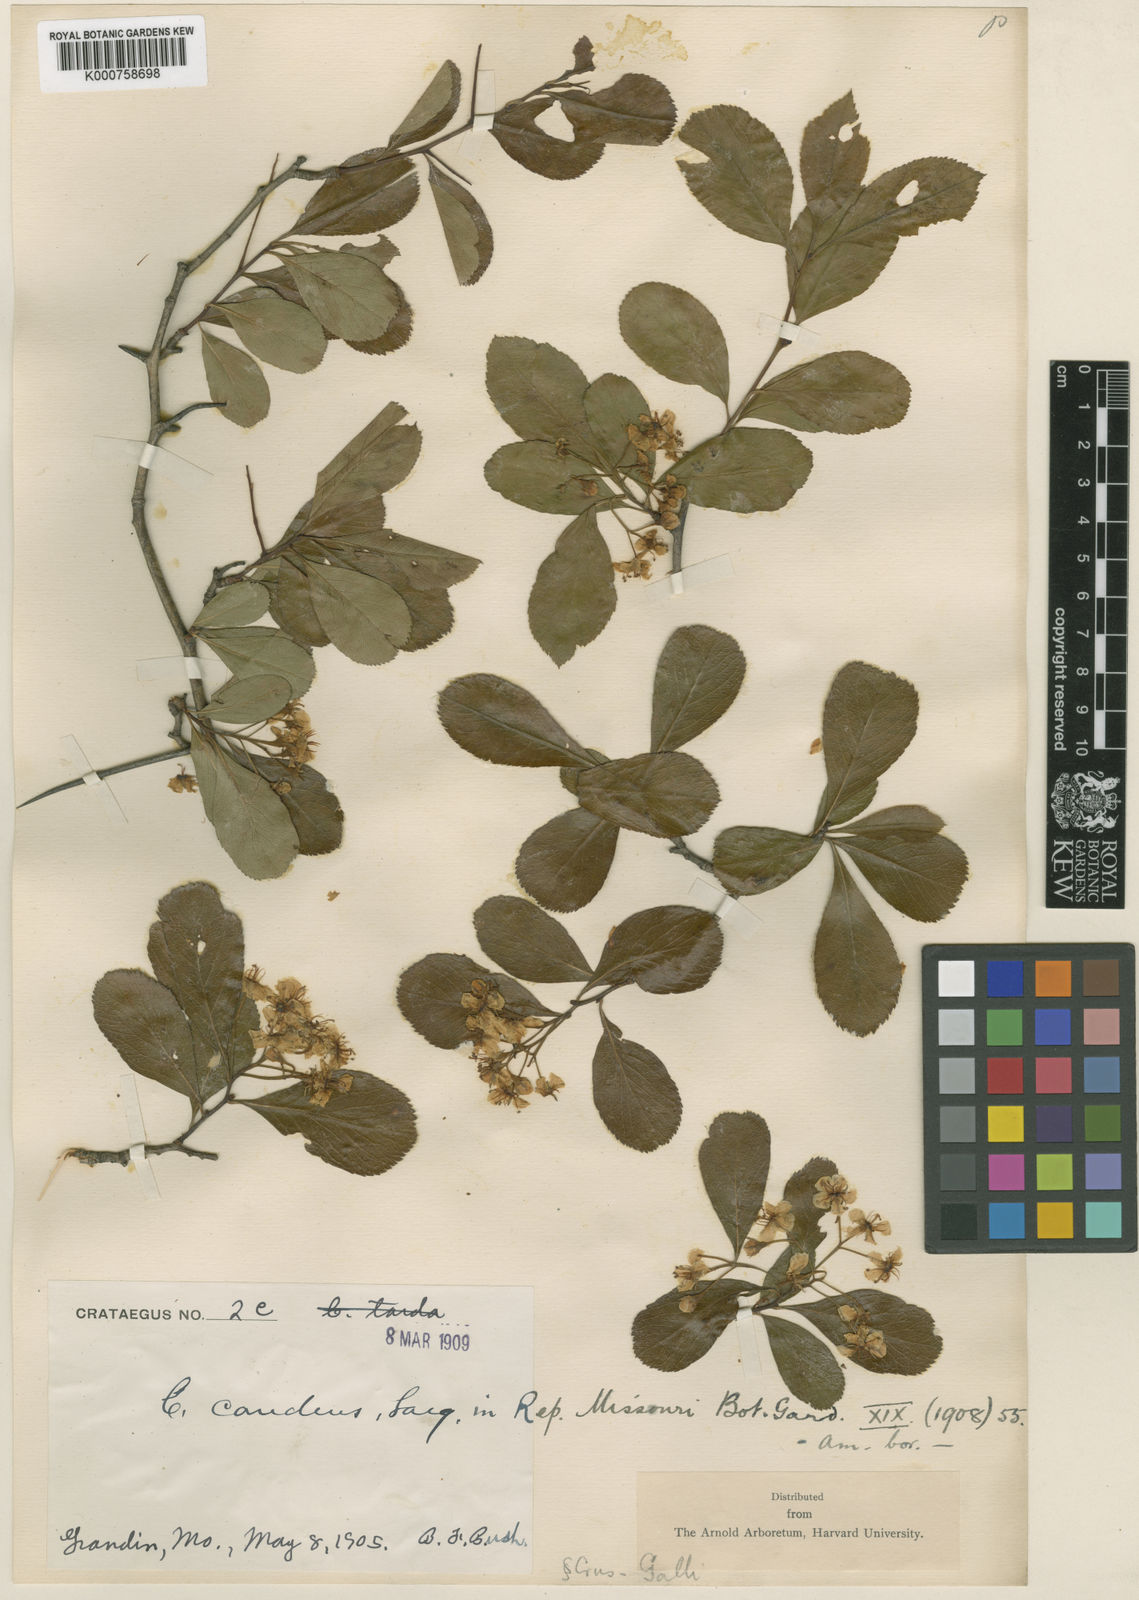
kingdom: Plantae
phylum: Tracheophyta
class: Magnoliopsida
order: Rosales
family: Rosaceae
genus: Crataegus
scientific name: Crataegus chrysocarpa
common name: Fire-berry hawthorn
